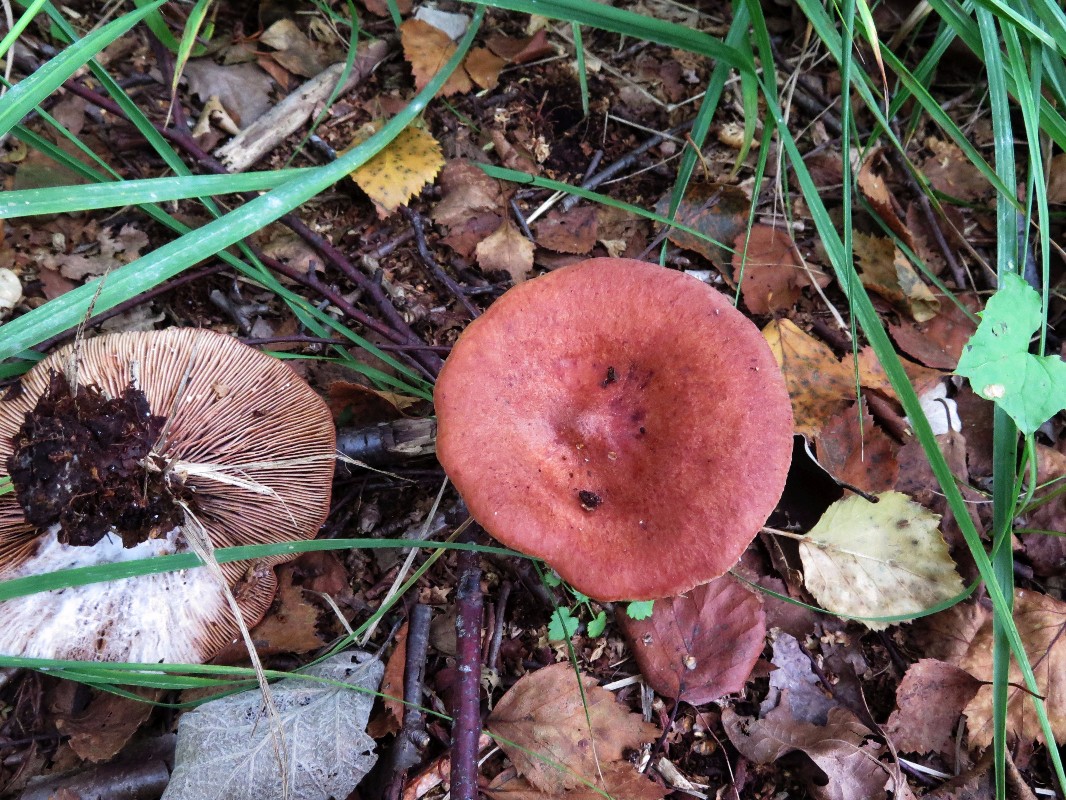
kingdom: Fungi
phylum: Basidiomycota
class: Agaricomycetes
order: Russulales
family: Russulaceae
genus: Lactarius
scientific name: Lactarius
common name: mælkehat
